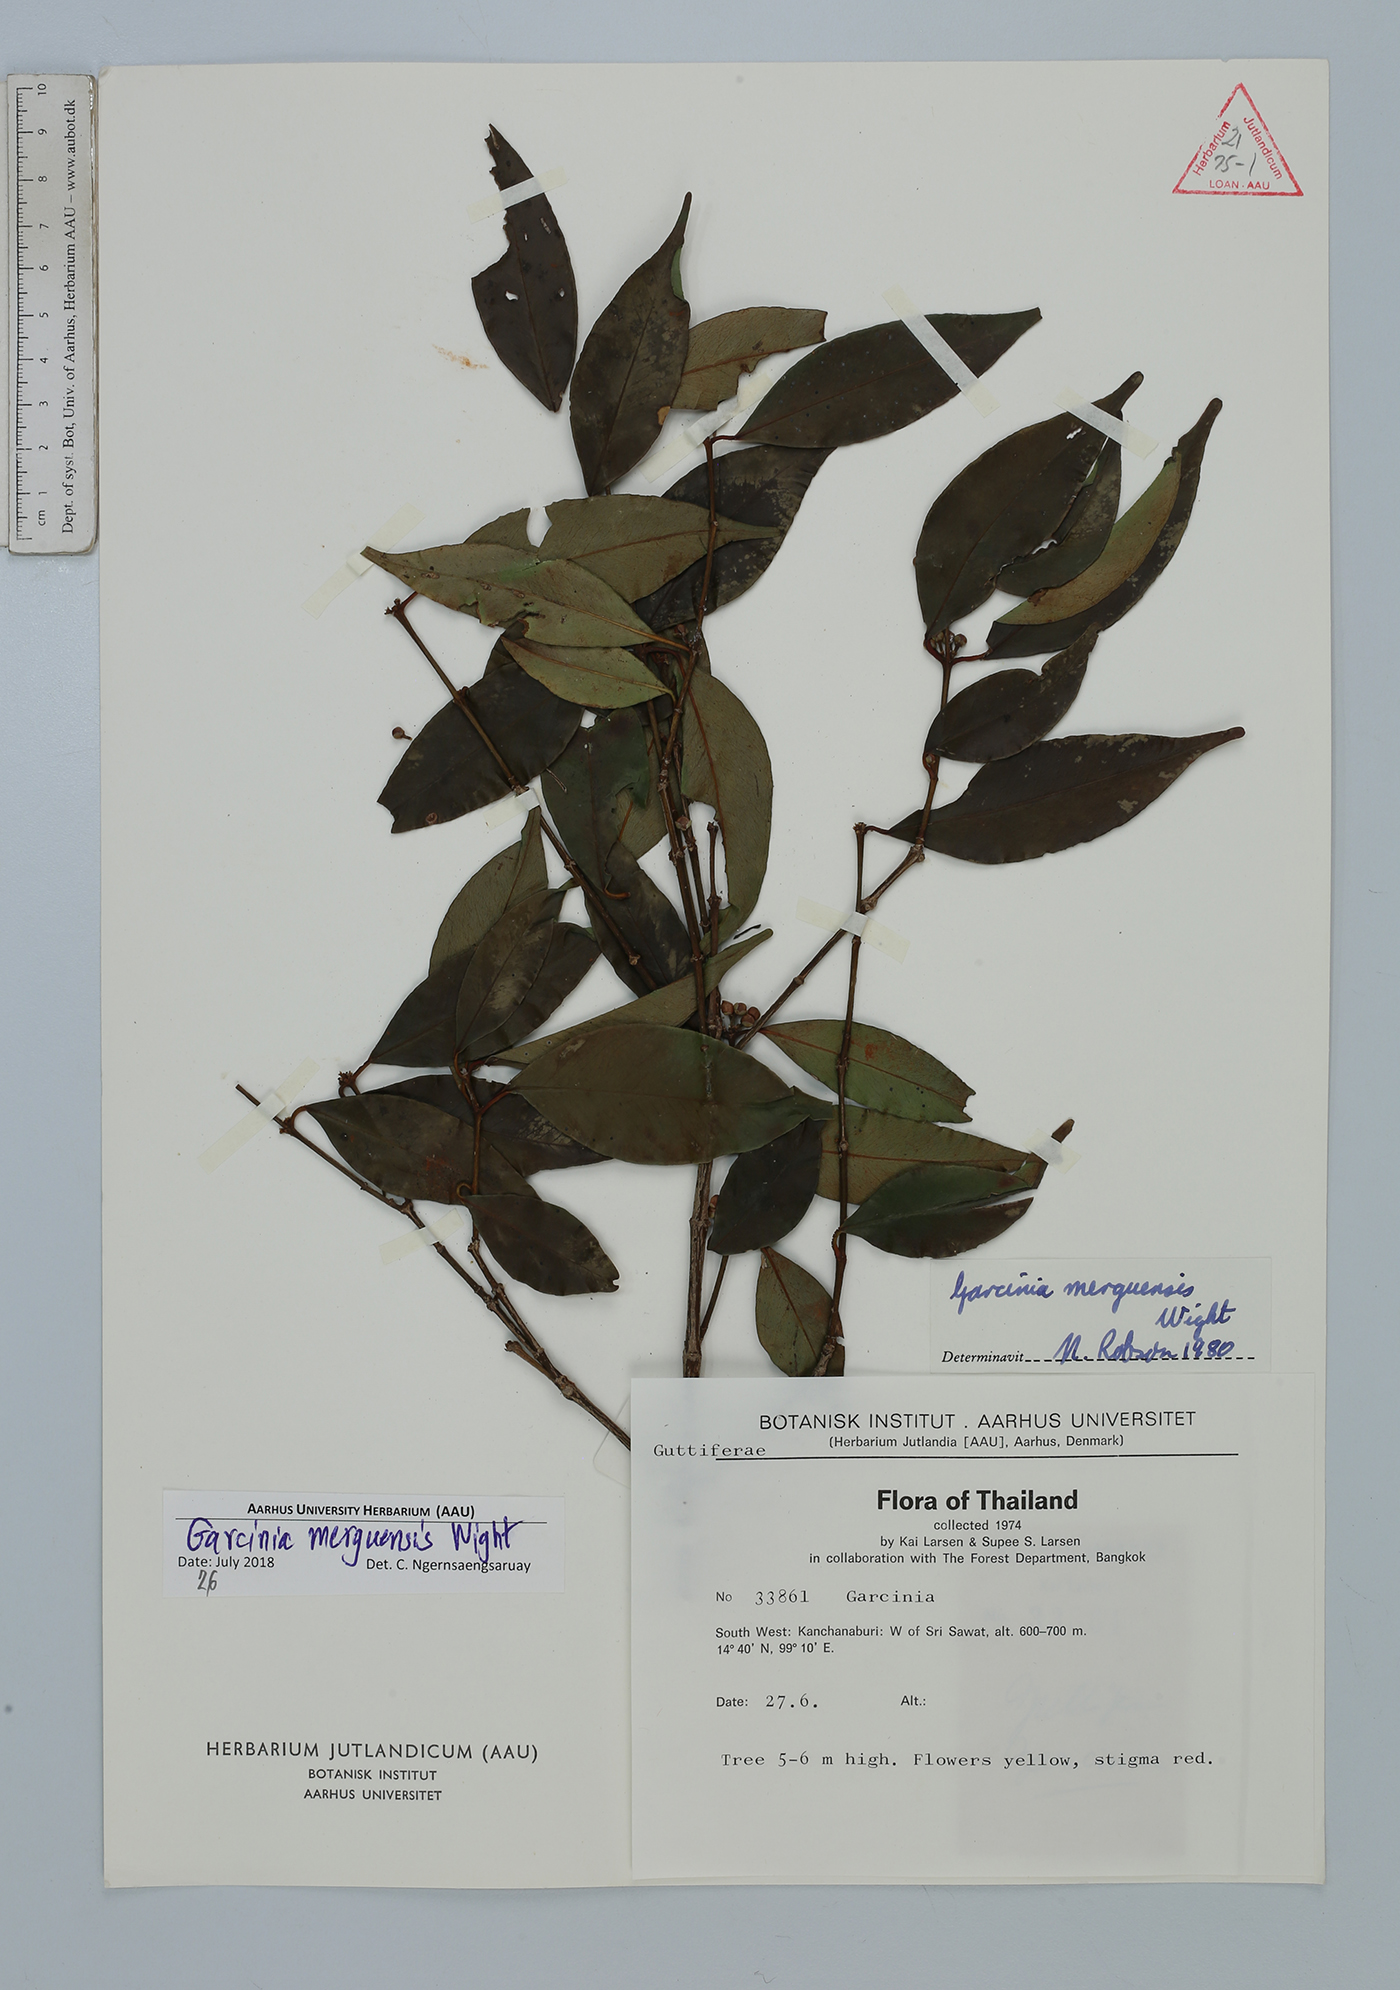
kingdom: Plantae
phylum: Tracheophyta
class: Magnoliopsida
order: Malpighiales
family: Clusiaceae
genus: Garcinia
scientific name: Garcinia merguensis
